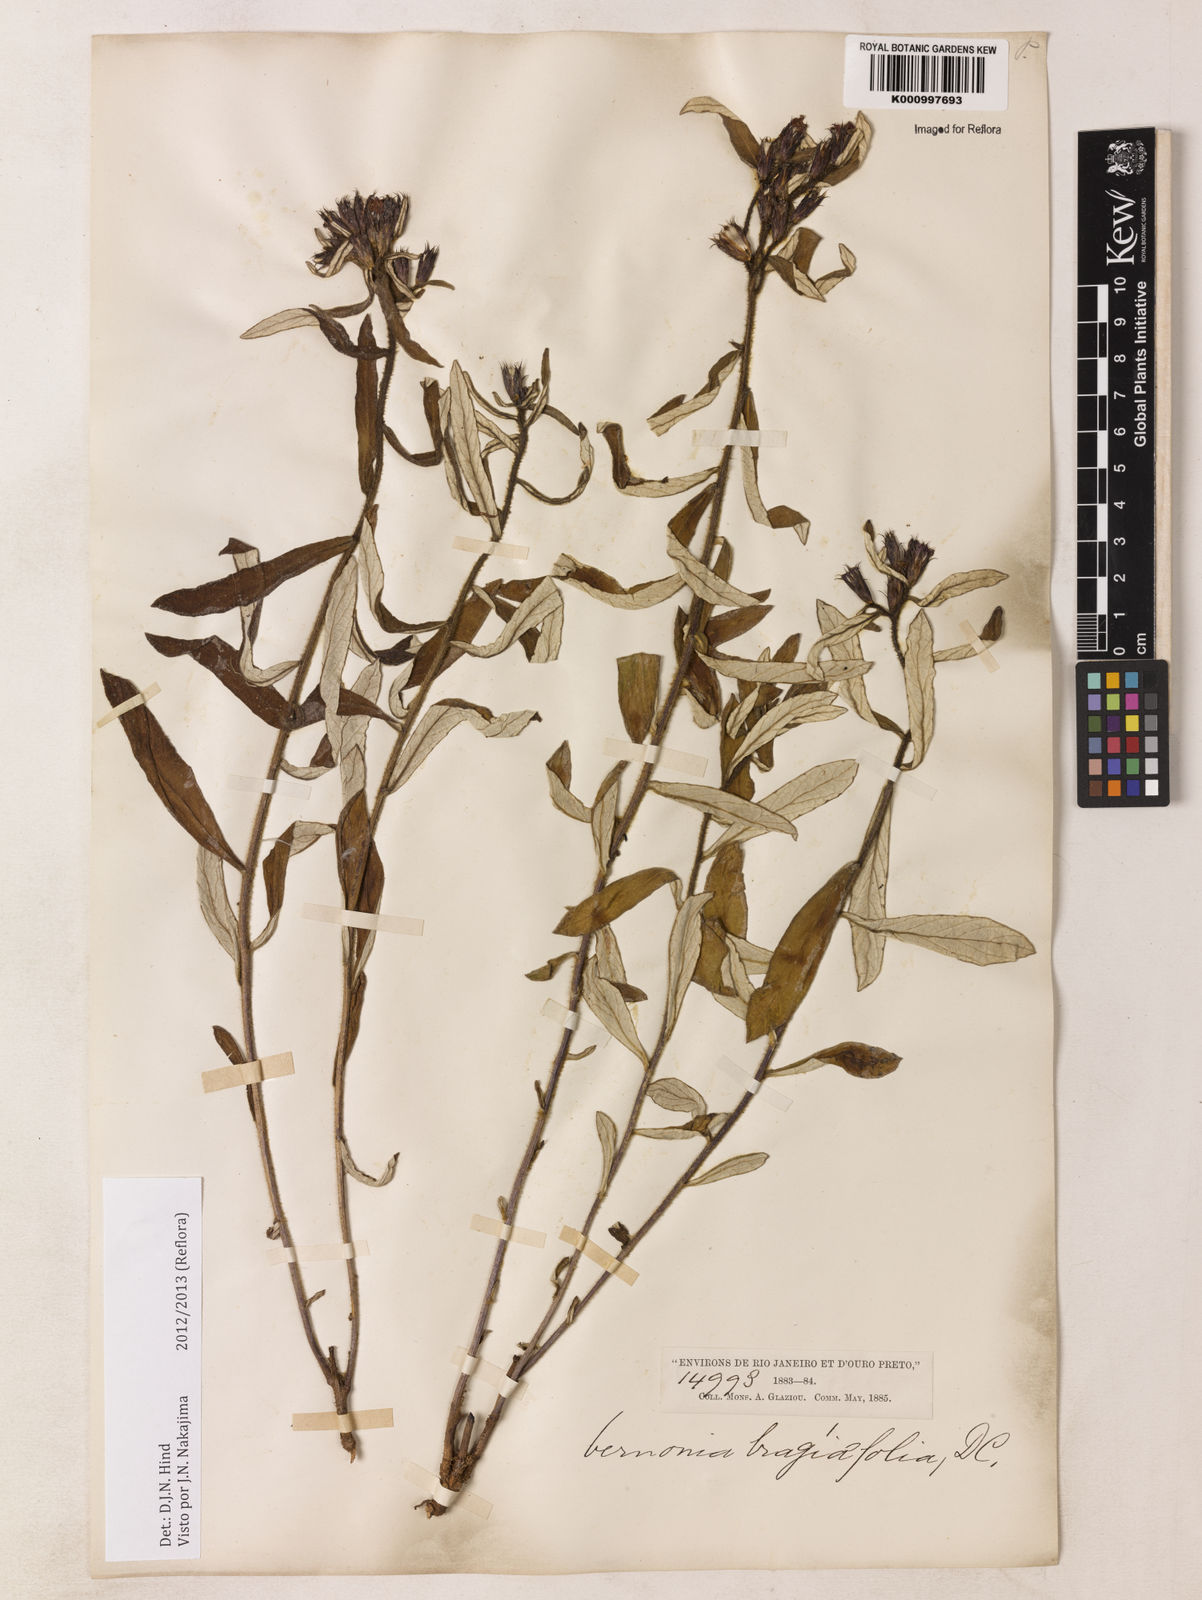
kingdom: Plantae
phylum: Tracheophyta
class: Magnoliopsida
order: Asterales
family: Asteraceae
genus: Vernonia
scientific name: Vernonia
